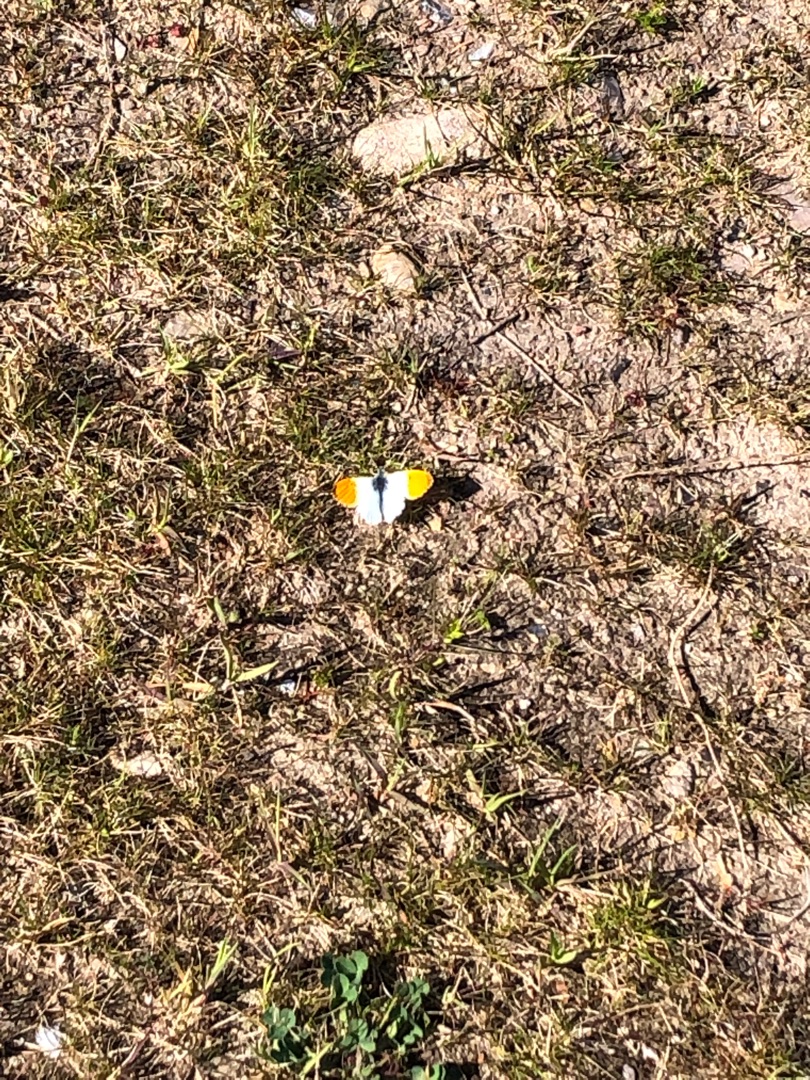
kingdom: Animalia
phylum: Arthropoda
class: Insecta
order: Lepidoptera
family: Pieridae
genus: Anthocharis
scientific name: Anthocharis cardamines
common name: Aurora
